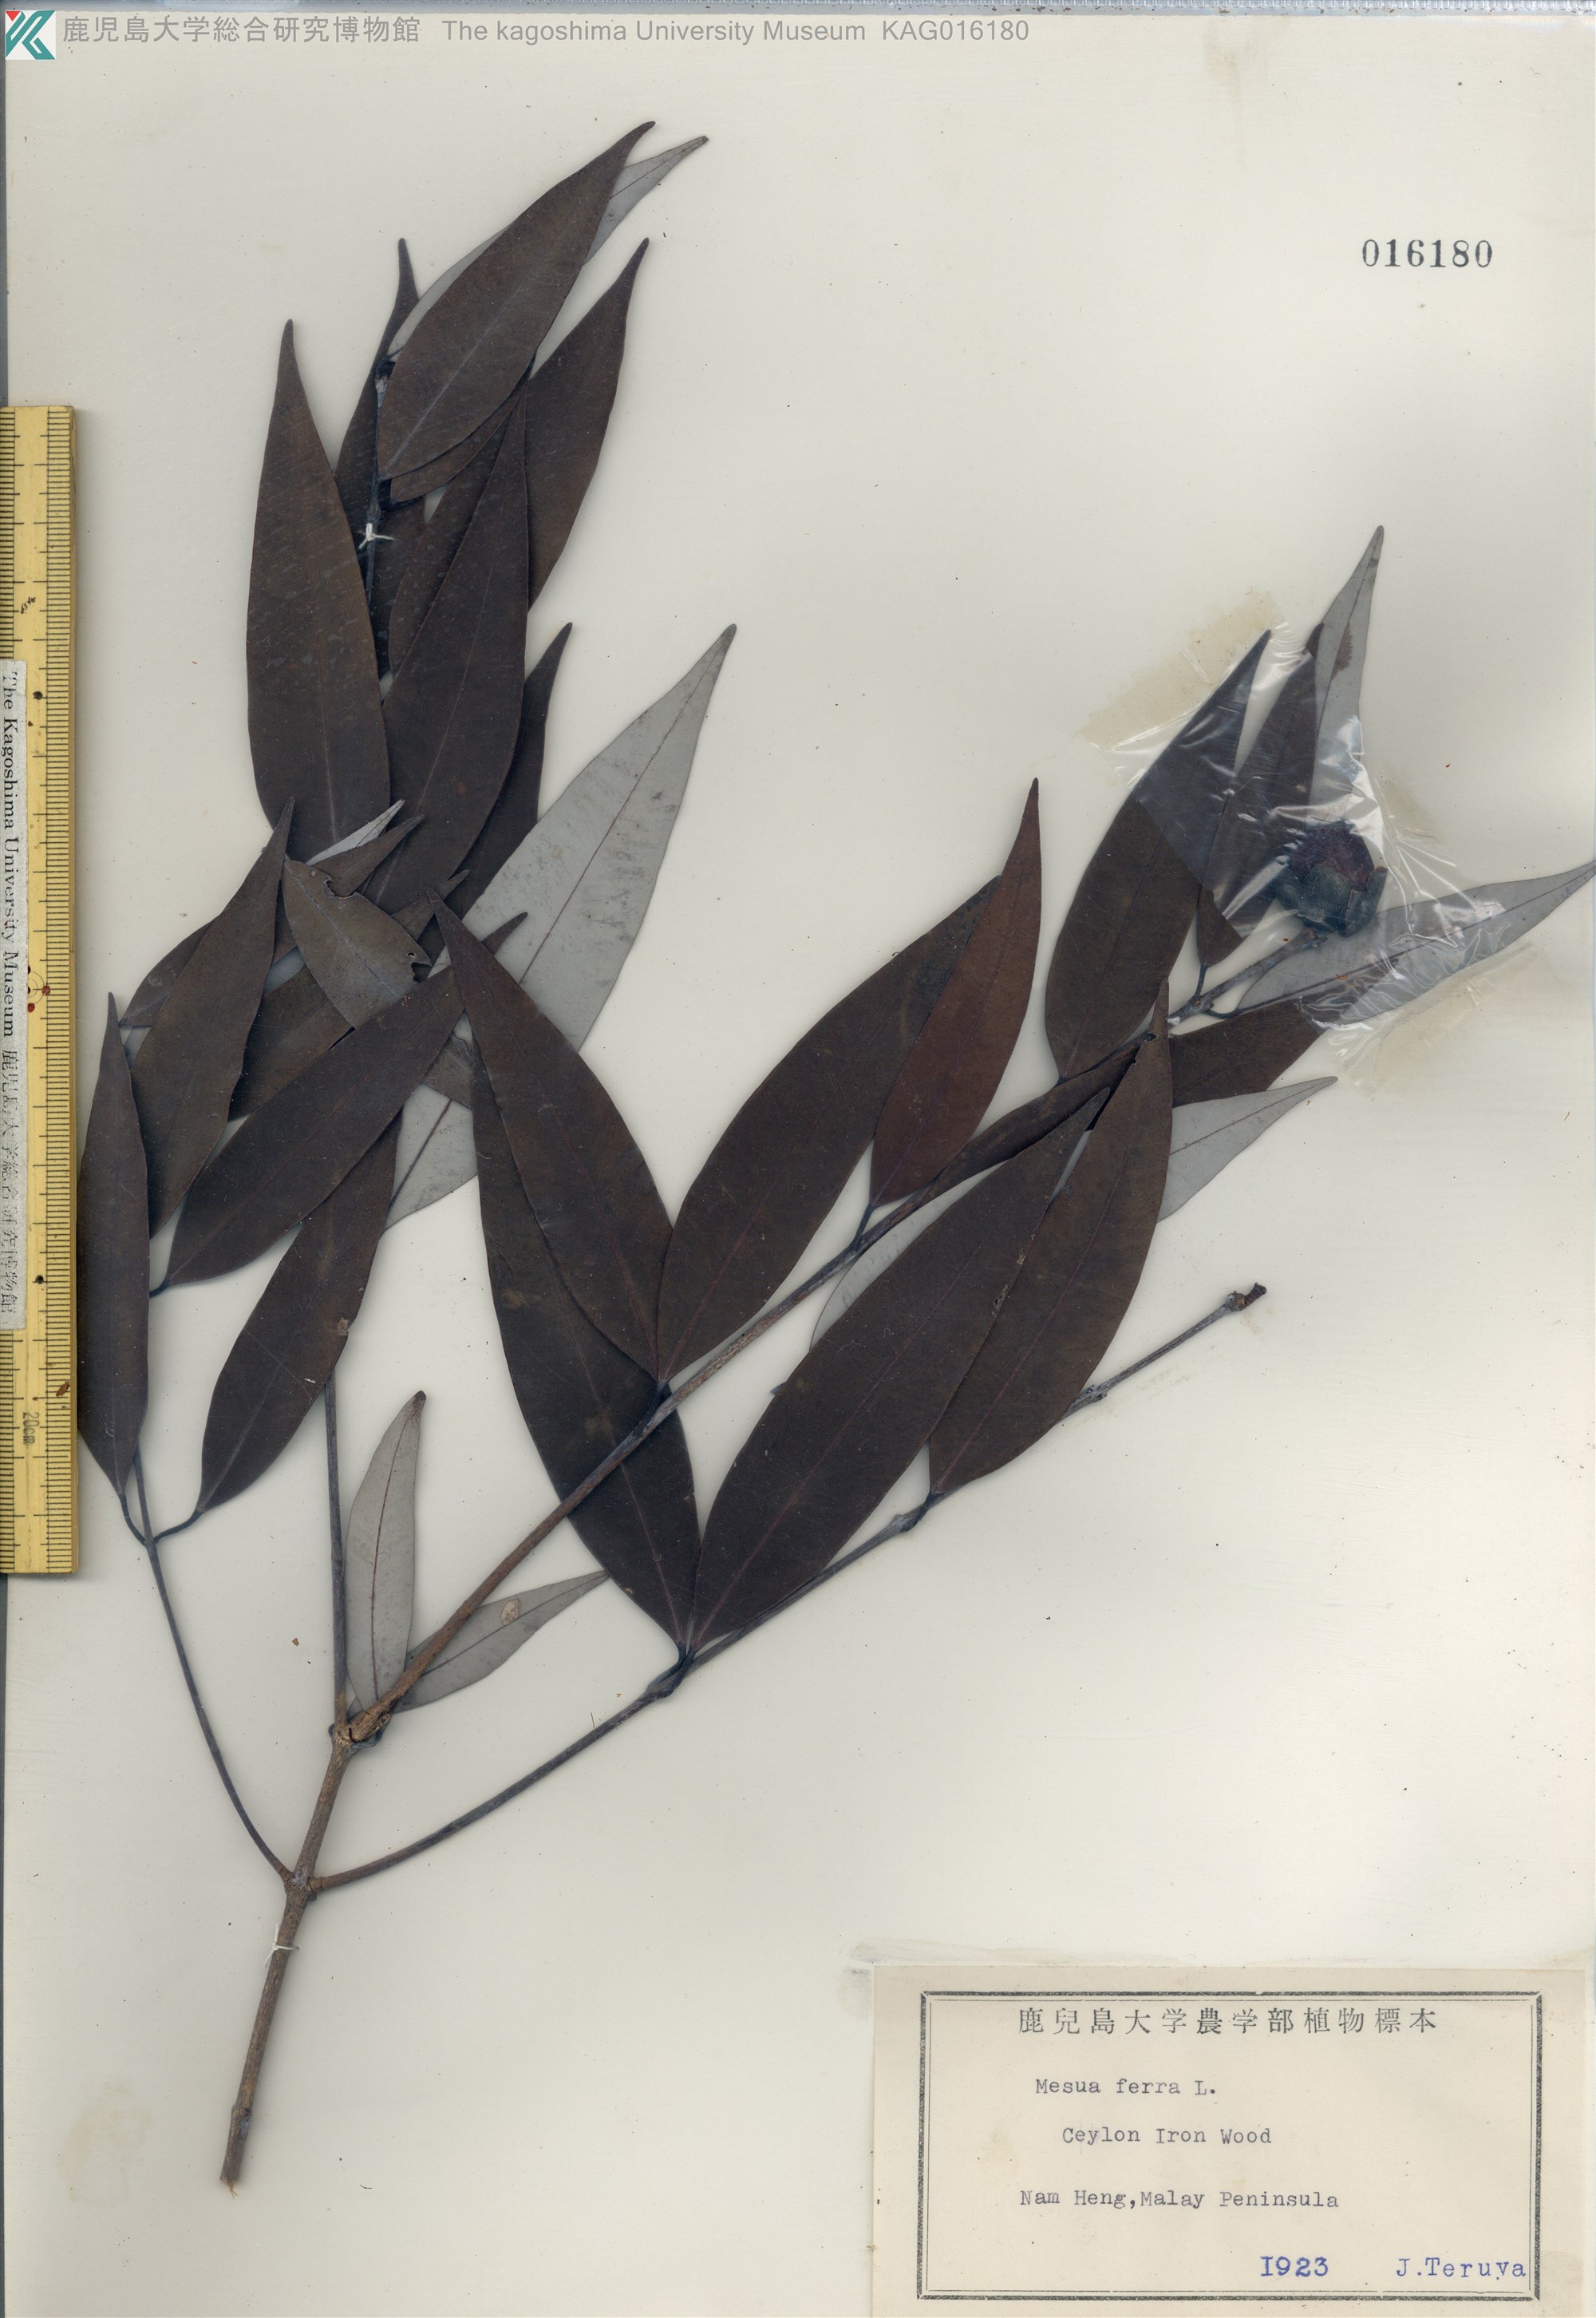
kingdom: Plantae
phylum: Tracheophyta
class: Magnoliopsida
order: Malpighiales
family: Calophyllaceae
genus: Mesua
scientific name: Mesua ferrea
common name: Mesua
